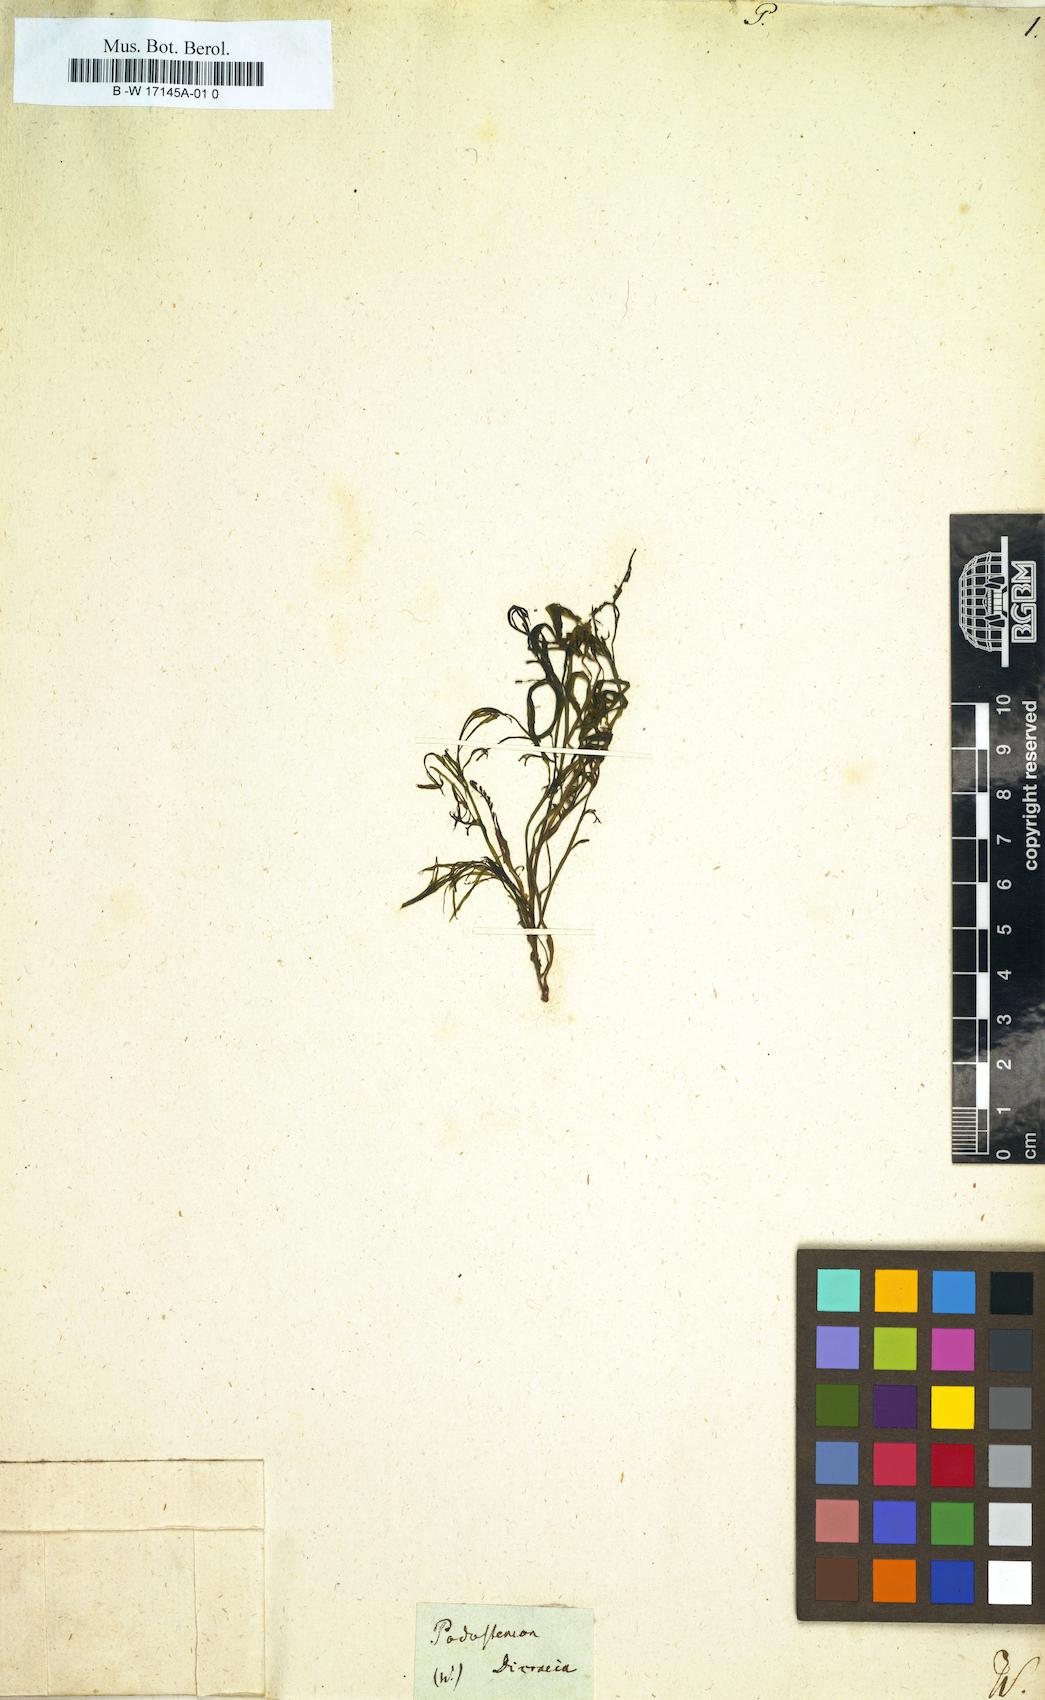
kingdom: Plantae
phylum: Tracheophyta
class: Magnoliopsida
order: Malpighiales
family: Podostemaceae
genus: Podostemon
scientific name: Podostemon
